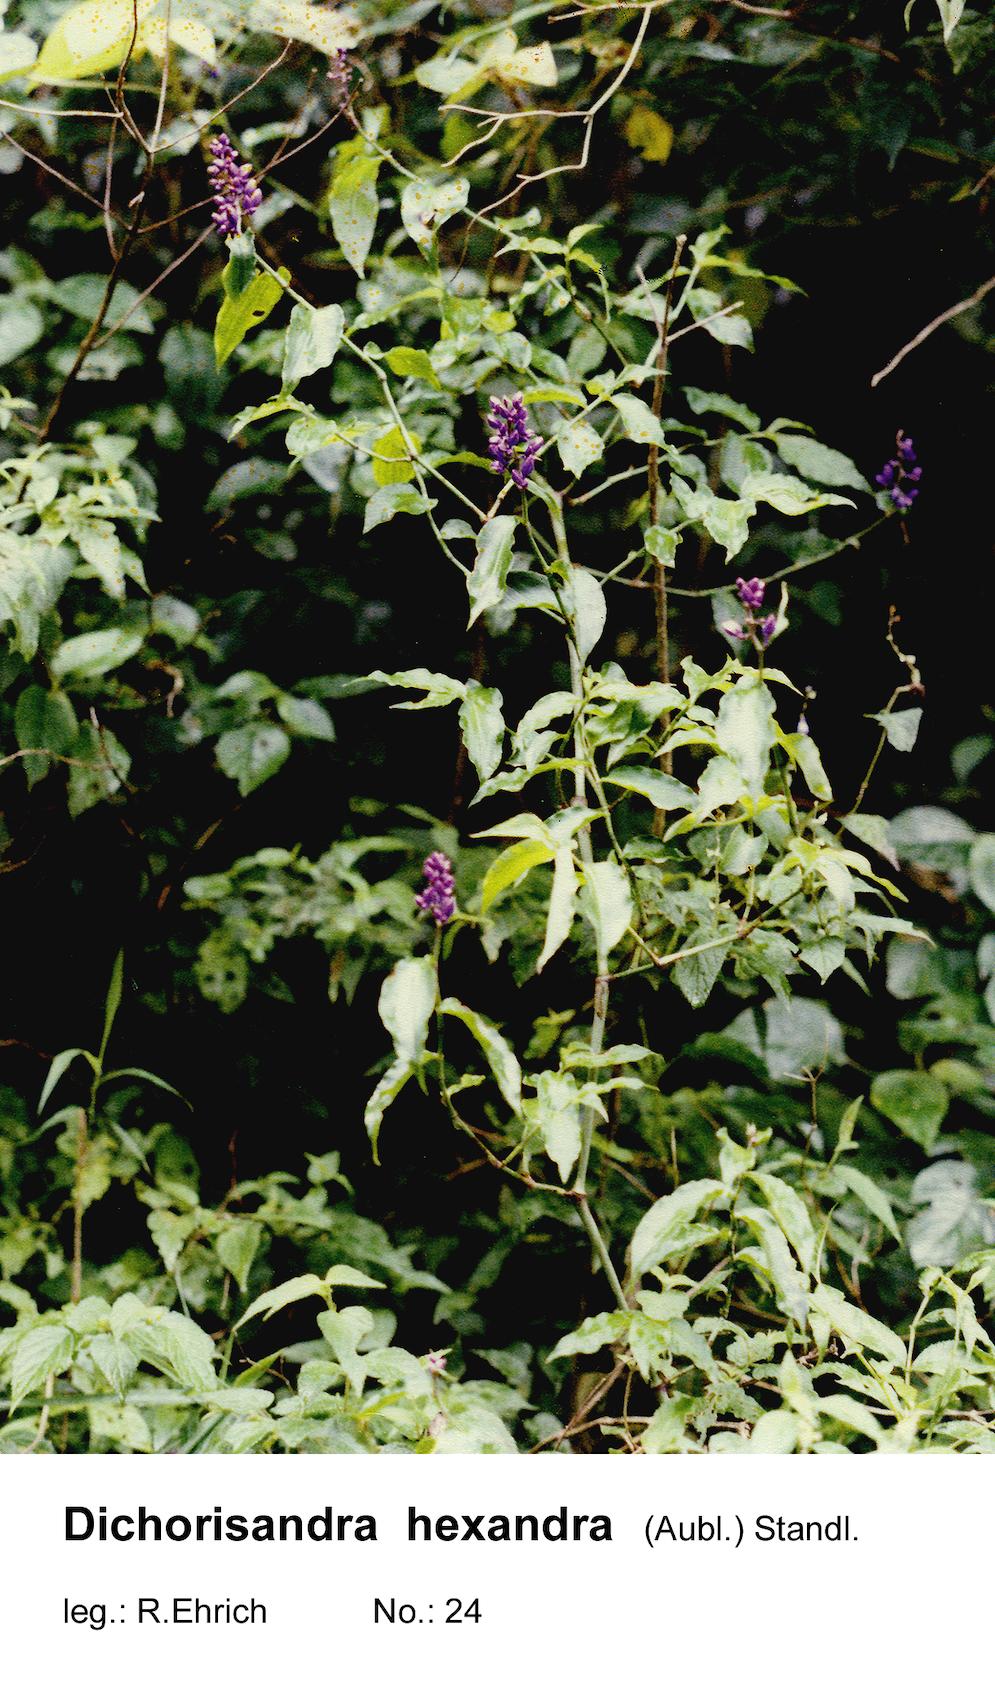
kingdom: Plantae
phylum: Tracheophyta
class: Liliopsida
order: Commelinales
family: Commelinaceae
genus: Dichorisandra
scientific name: Dichorisandra hexandra
